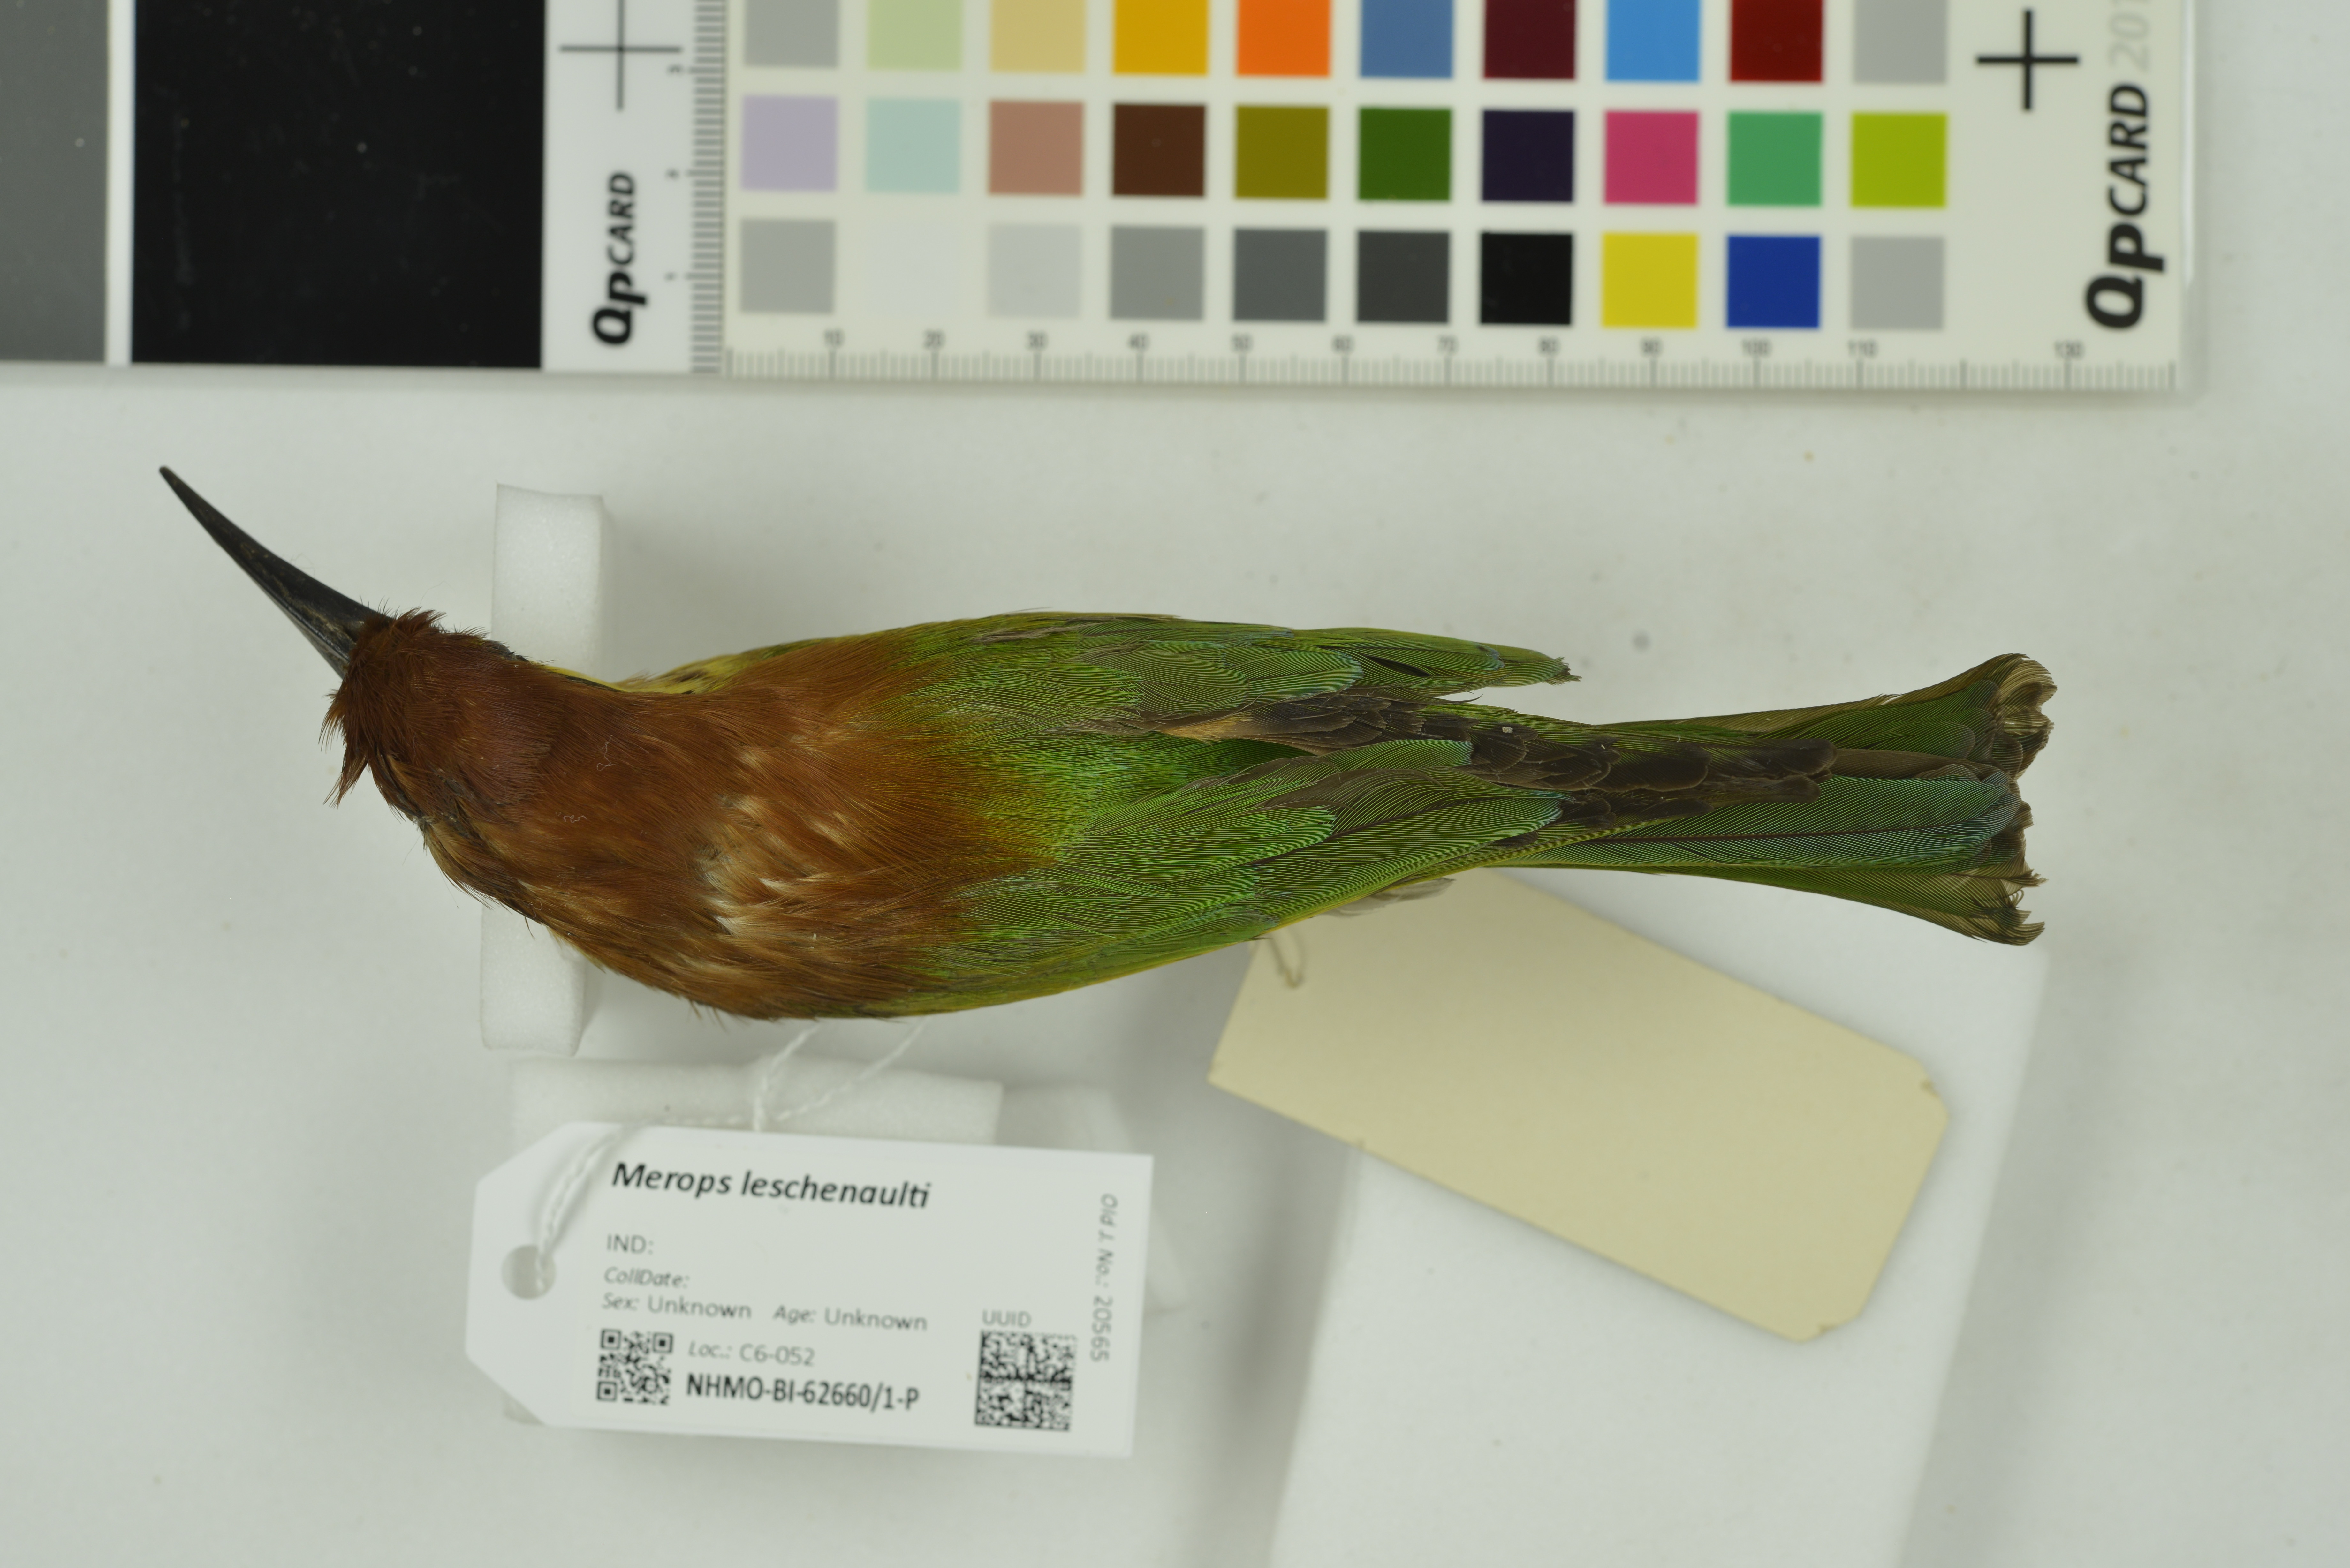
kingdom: Animalia
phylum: Chordata
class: Aves
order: Coraciiformes
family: Meropidae
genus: Merops
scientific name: Merops leschenaulti
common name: Chestnut-headed bee-eater
